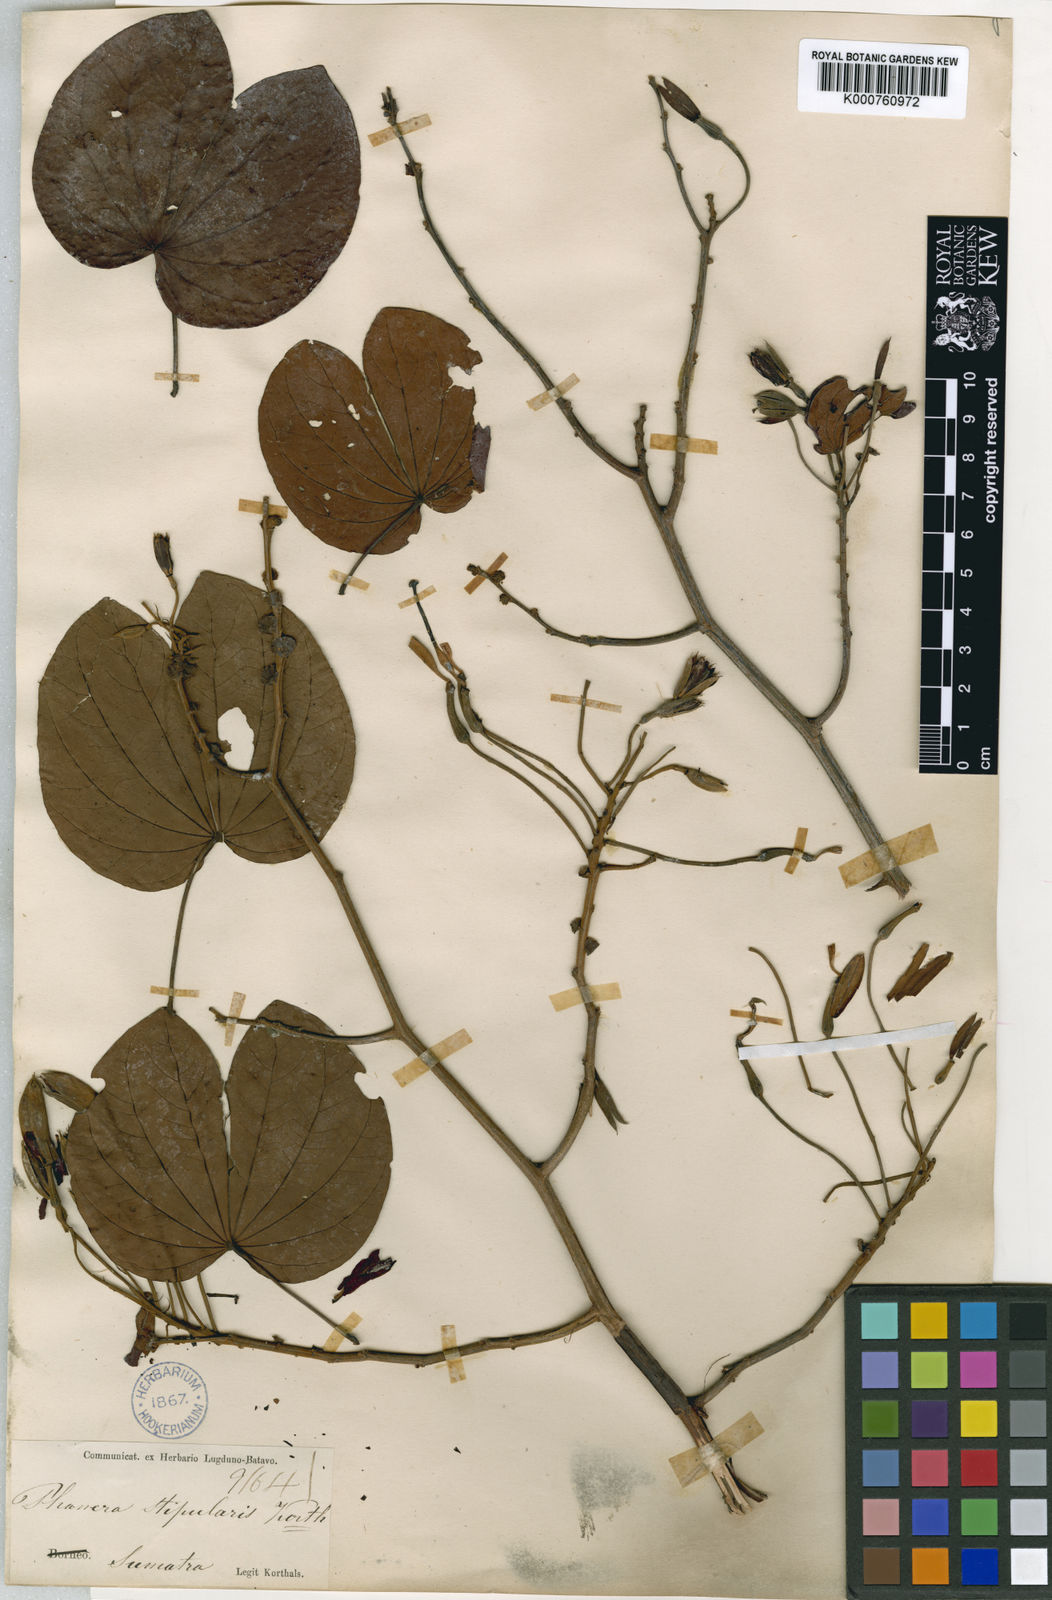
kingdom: Plantae
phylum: Tracheophyta
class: Magnoliopsida
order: Fabales
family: Fabaceae
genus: Phanera
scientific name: Phanera stipularis
